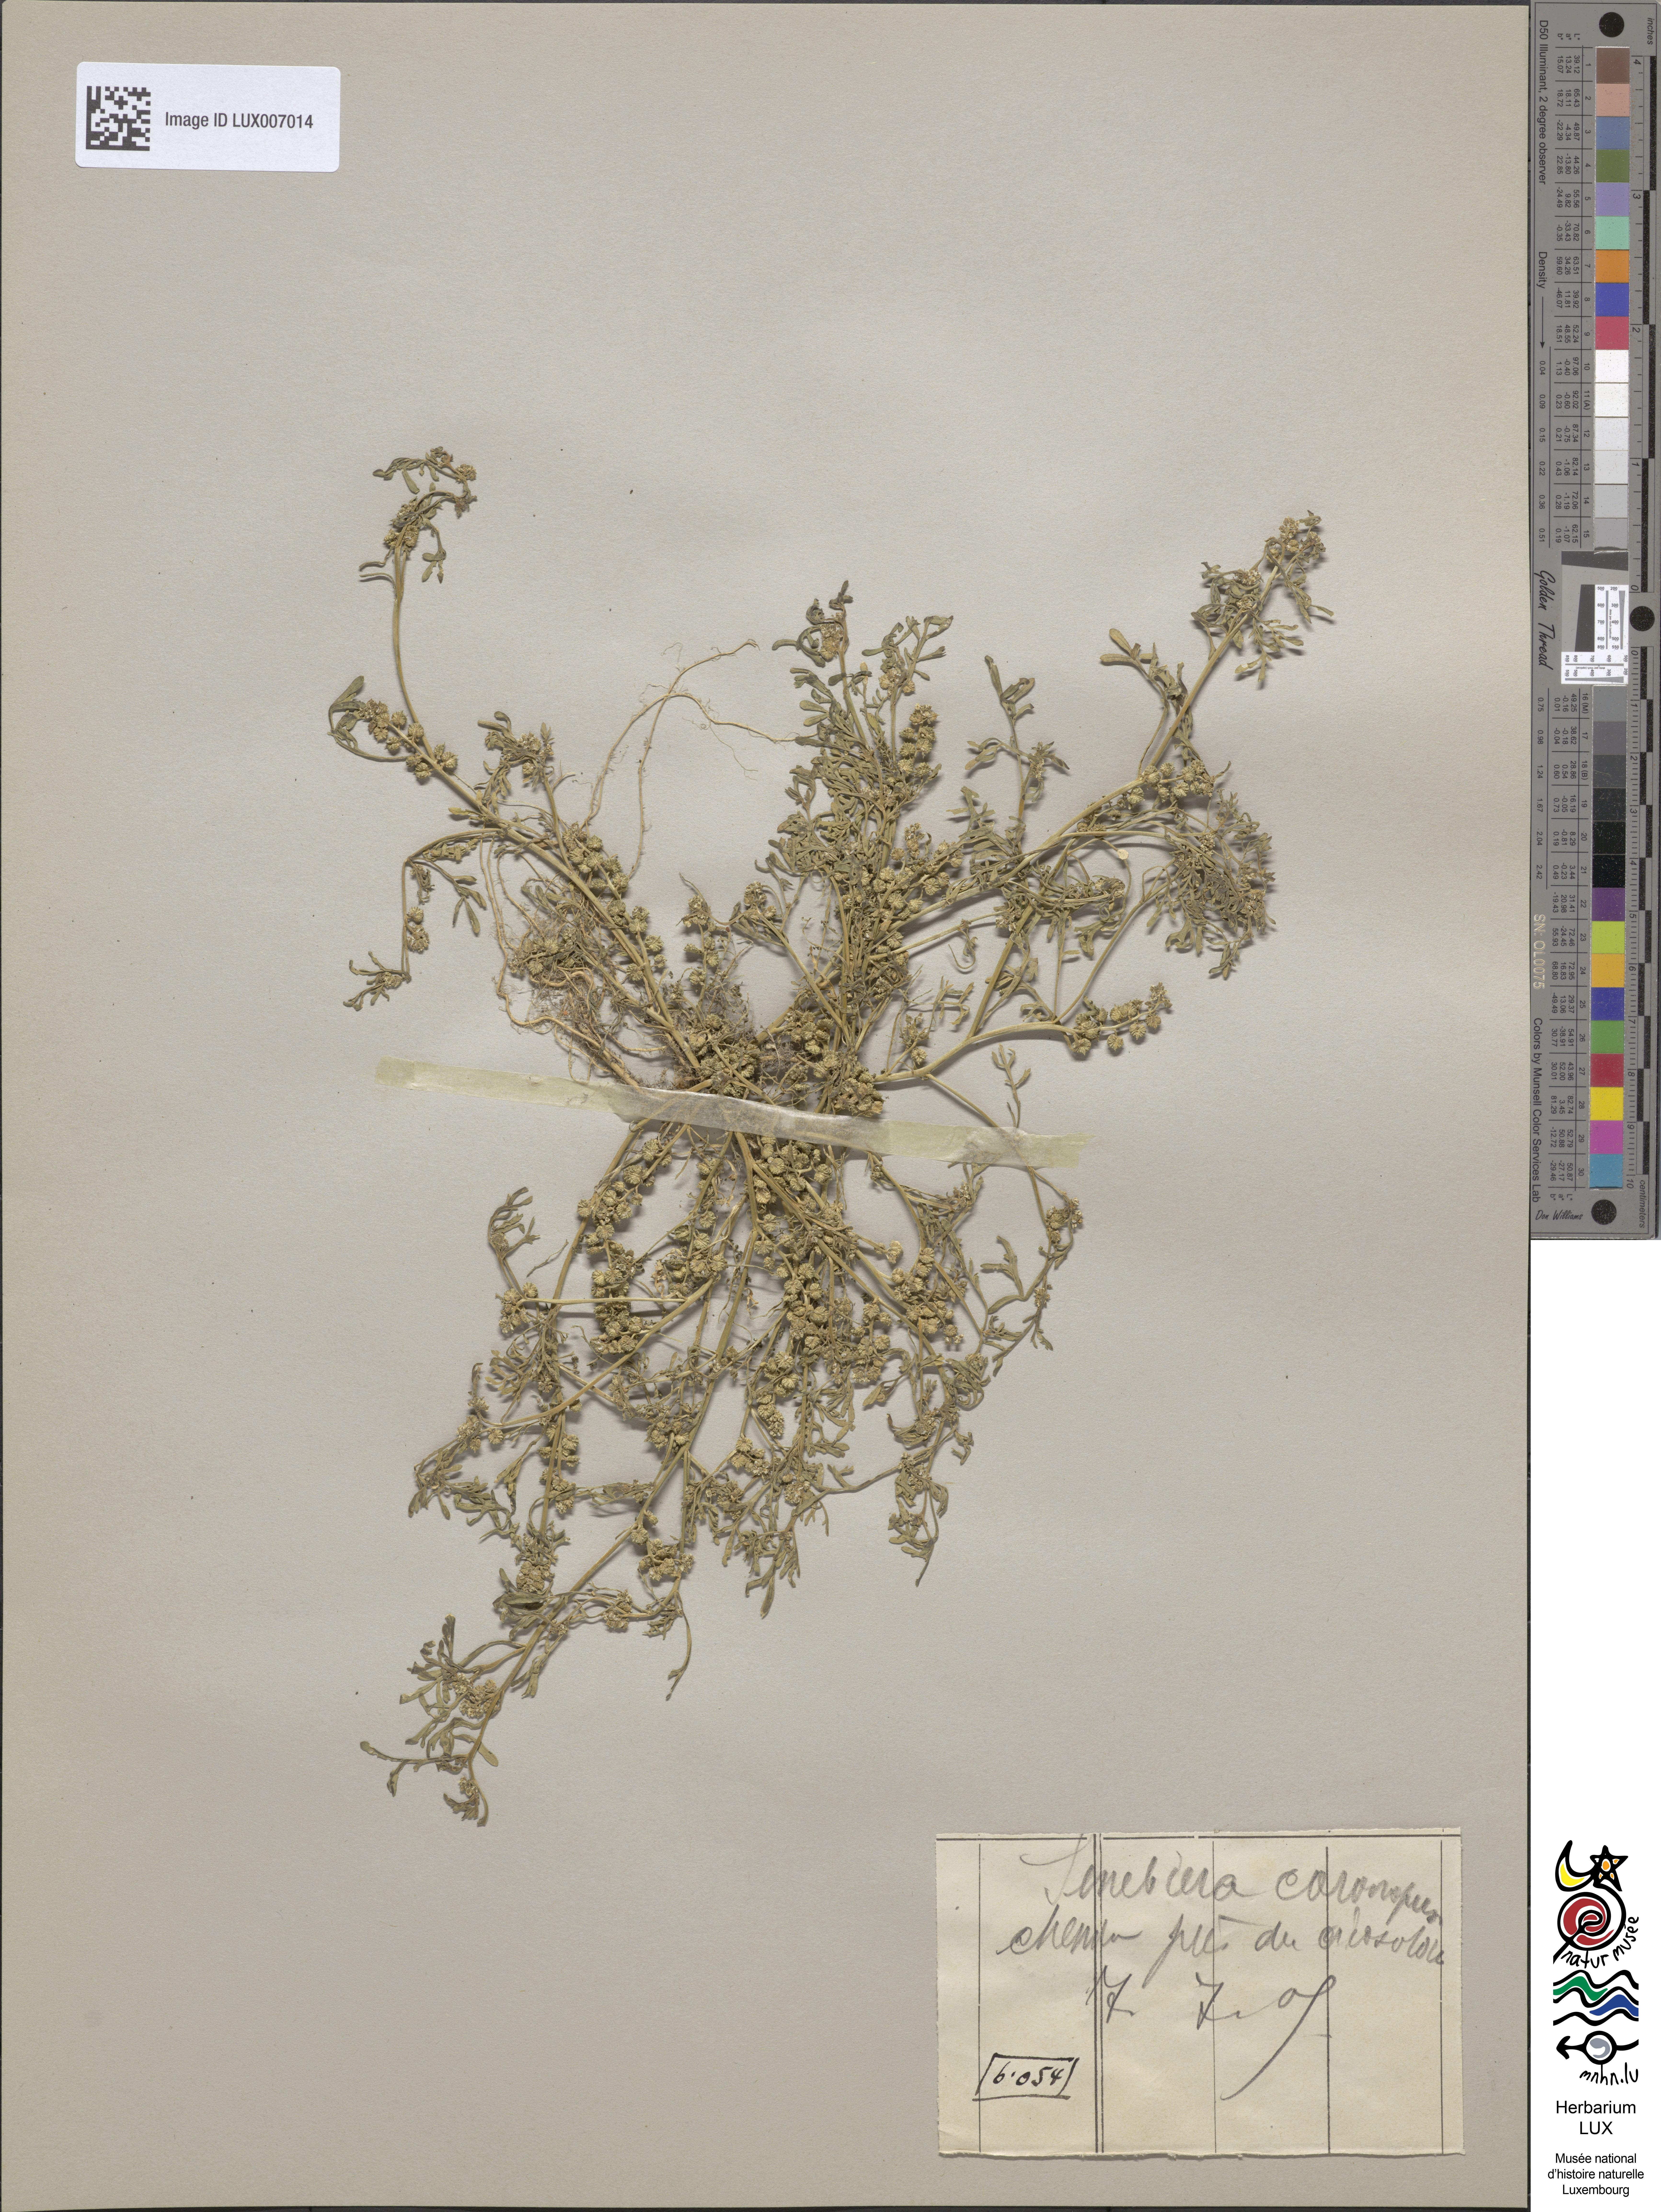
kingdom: Plantae
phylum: Tracheophyta
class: Magnoliopsida
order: Brassicales
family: Brassicaceae
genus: Lepidium
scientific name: Lepidium coronopus
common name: Greater swinecress
